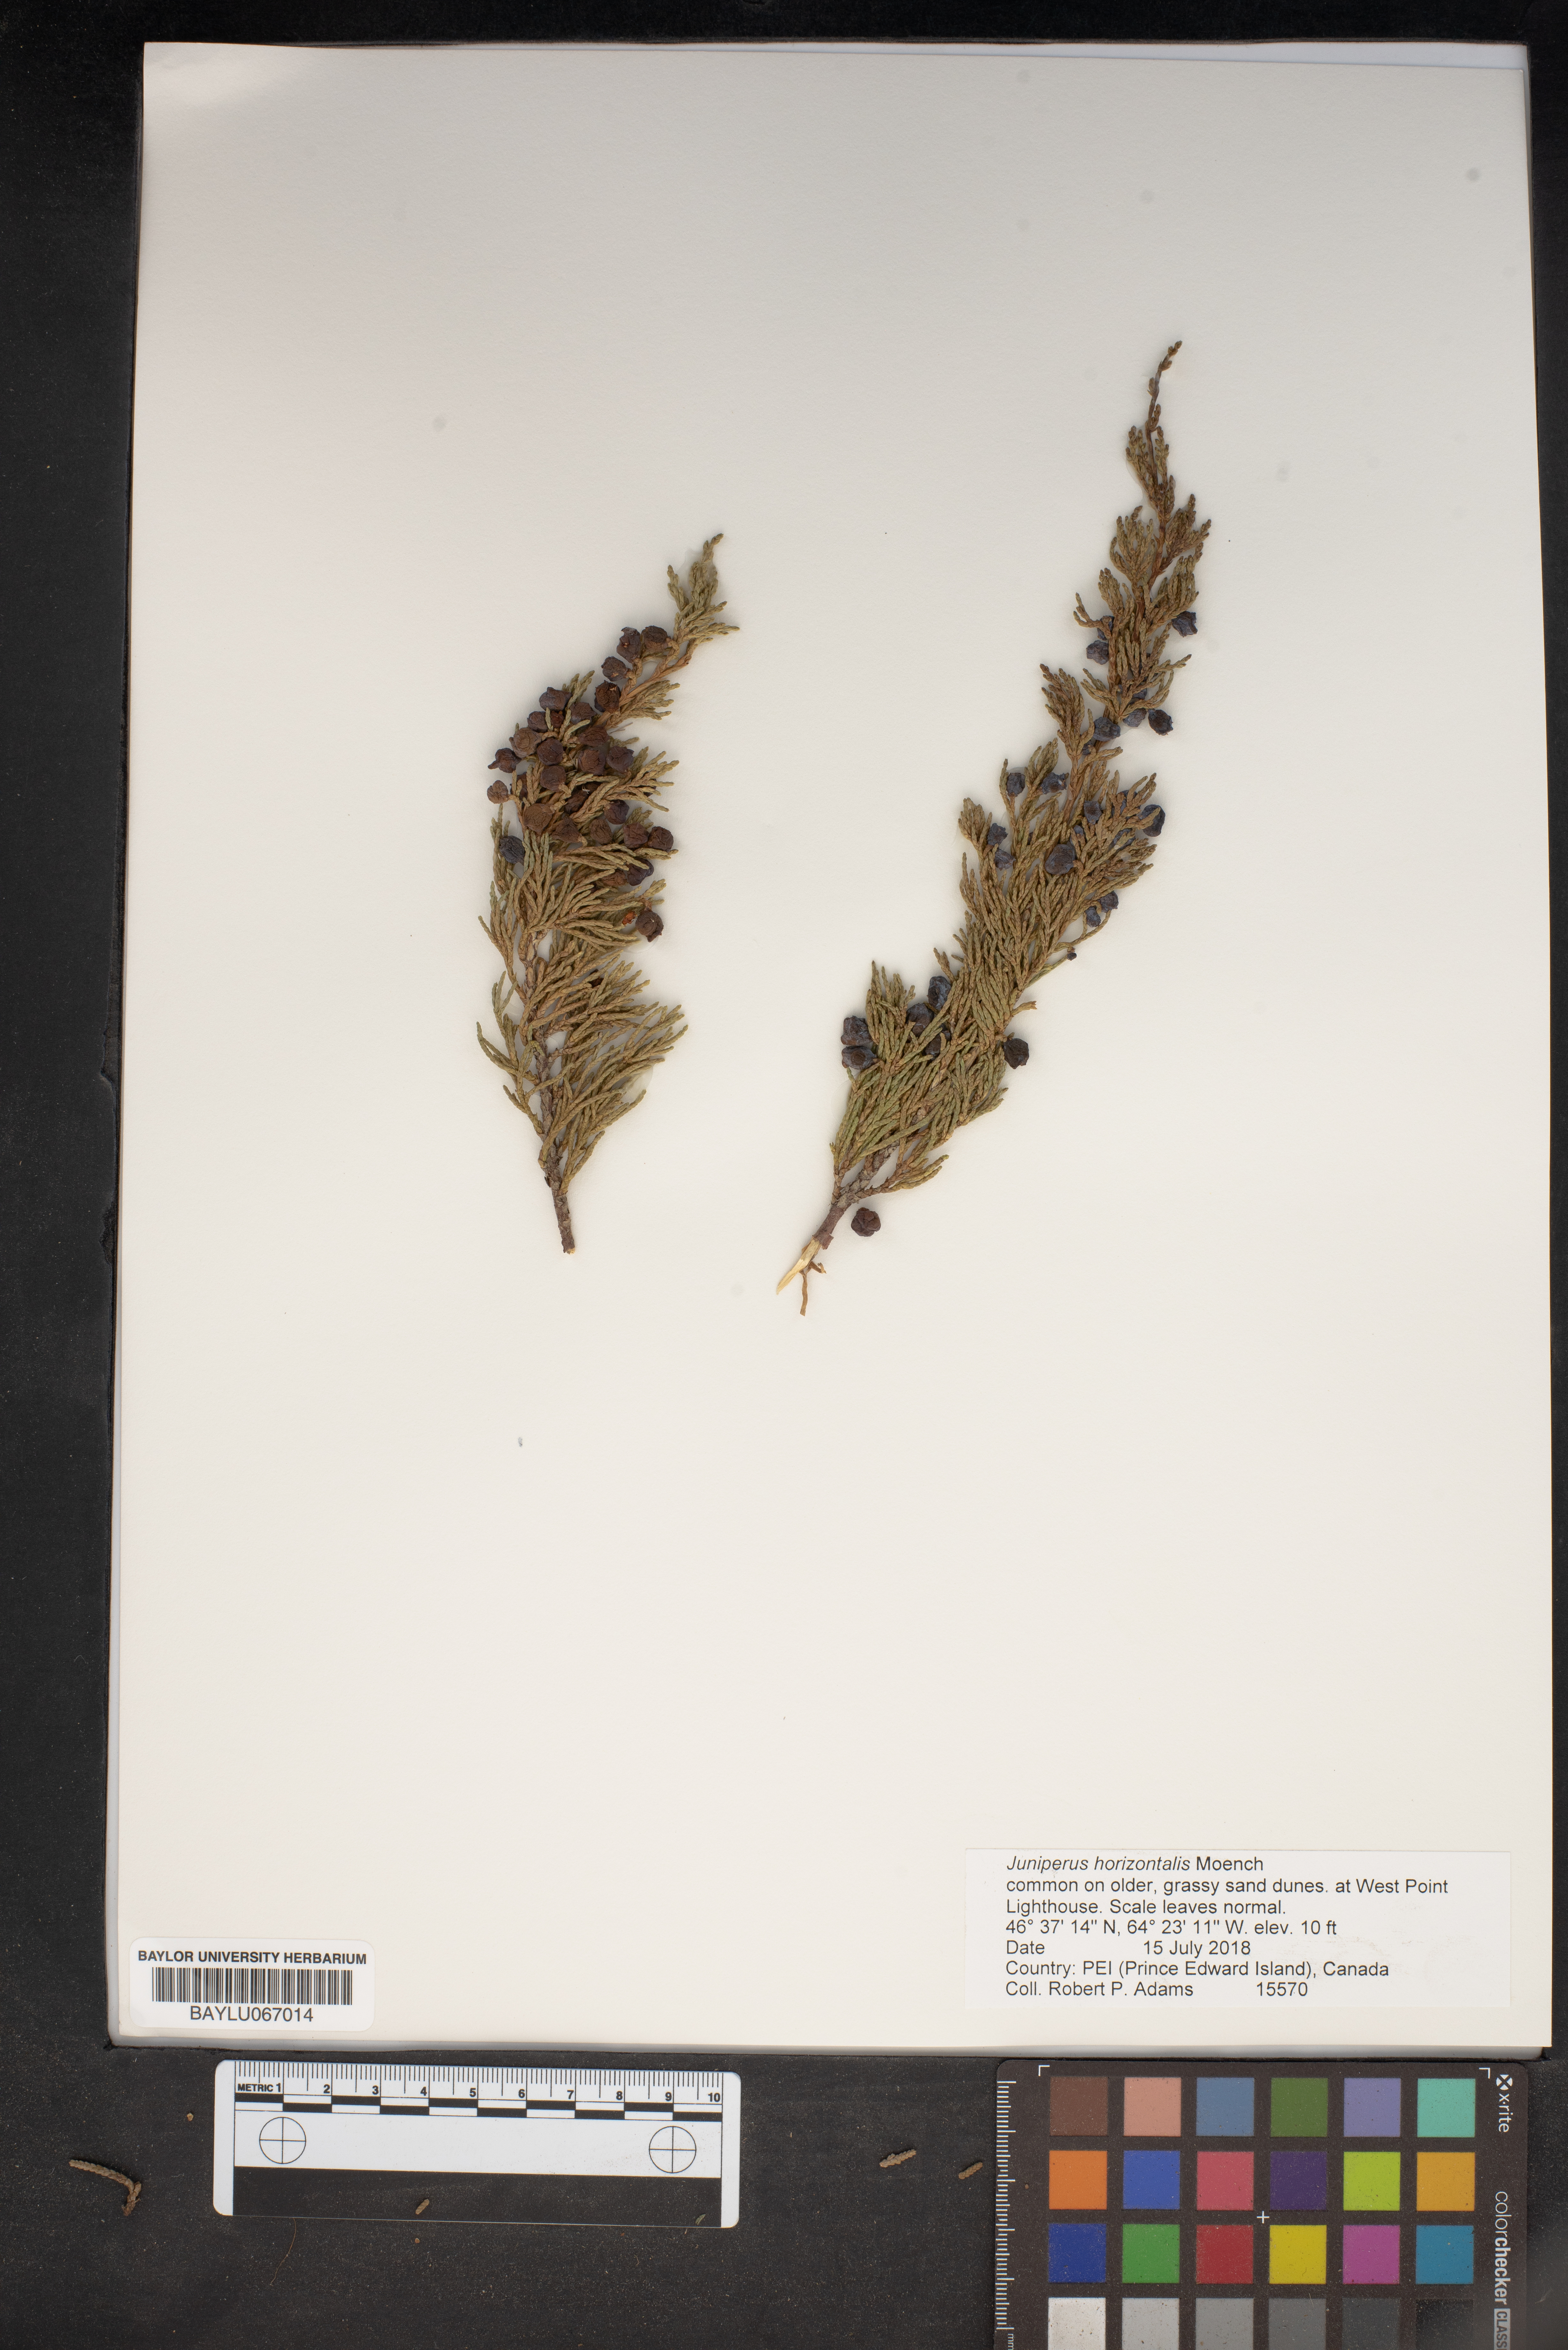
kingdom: Plantae
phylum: Tracheophyta
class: Pinopsida
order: Pinales
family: Cupressaceae
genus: Juniperus
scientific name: Juniperus horizontalis
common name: Creeping juniper
